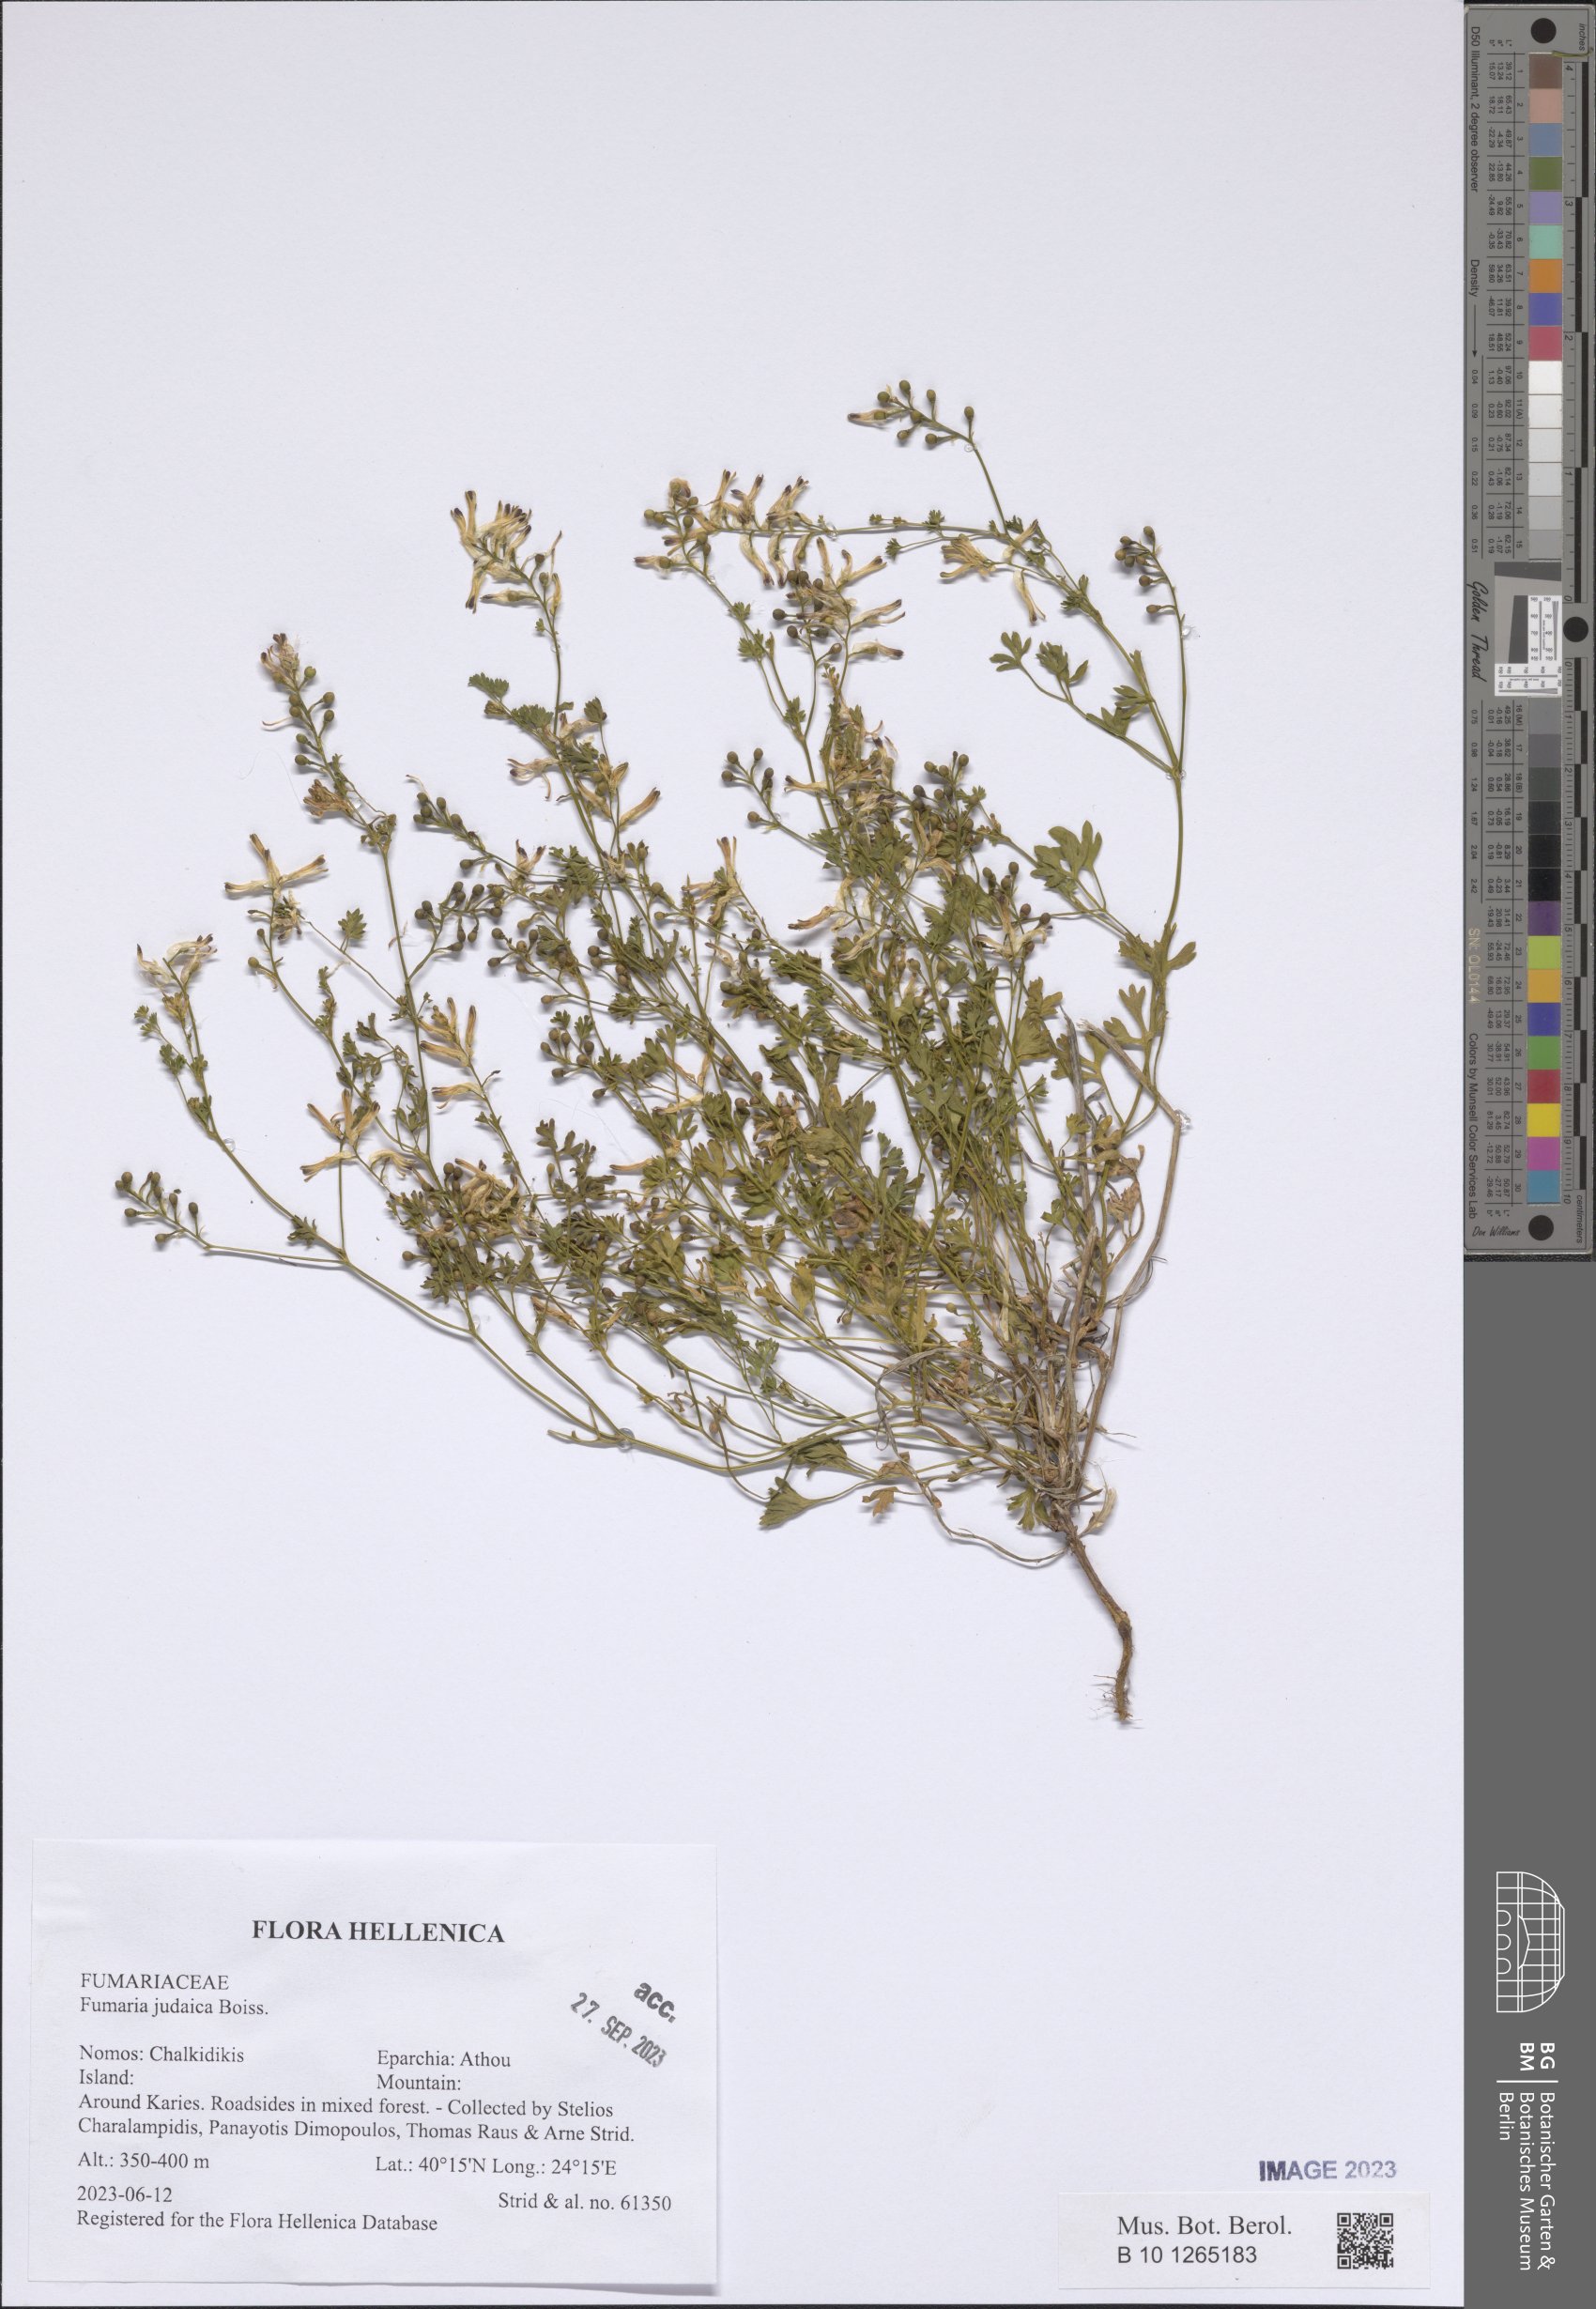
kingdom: Plantae
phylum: Tracheophyta
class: Magnoliopsida
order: Ranunculales
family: Papaveraceae
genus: Fumaria
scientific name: Fumaria judaica
